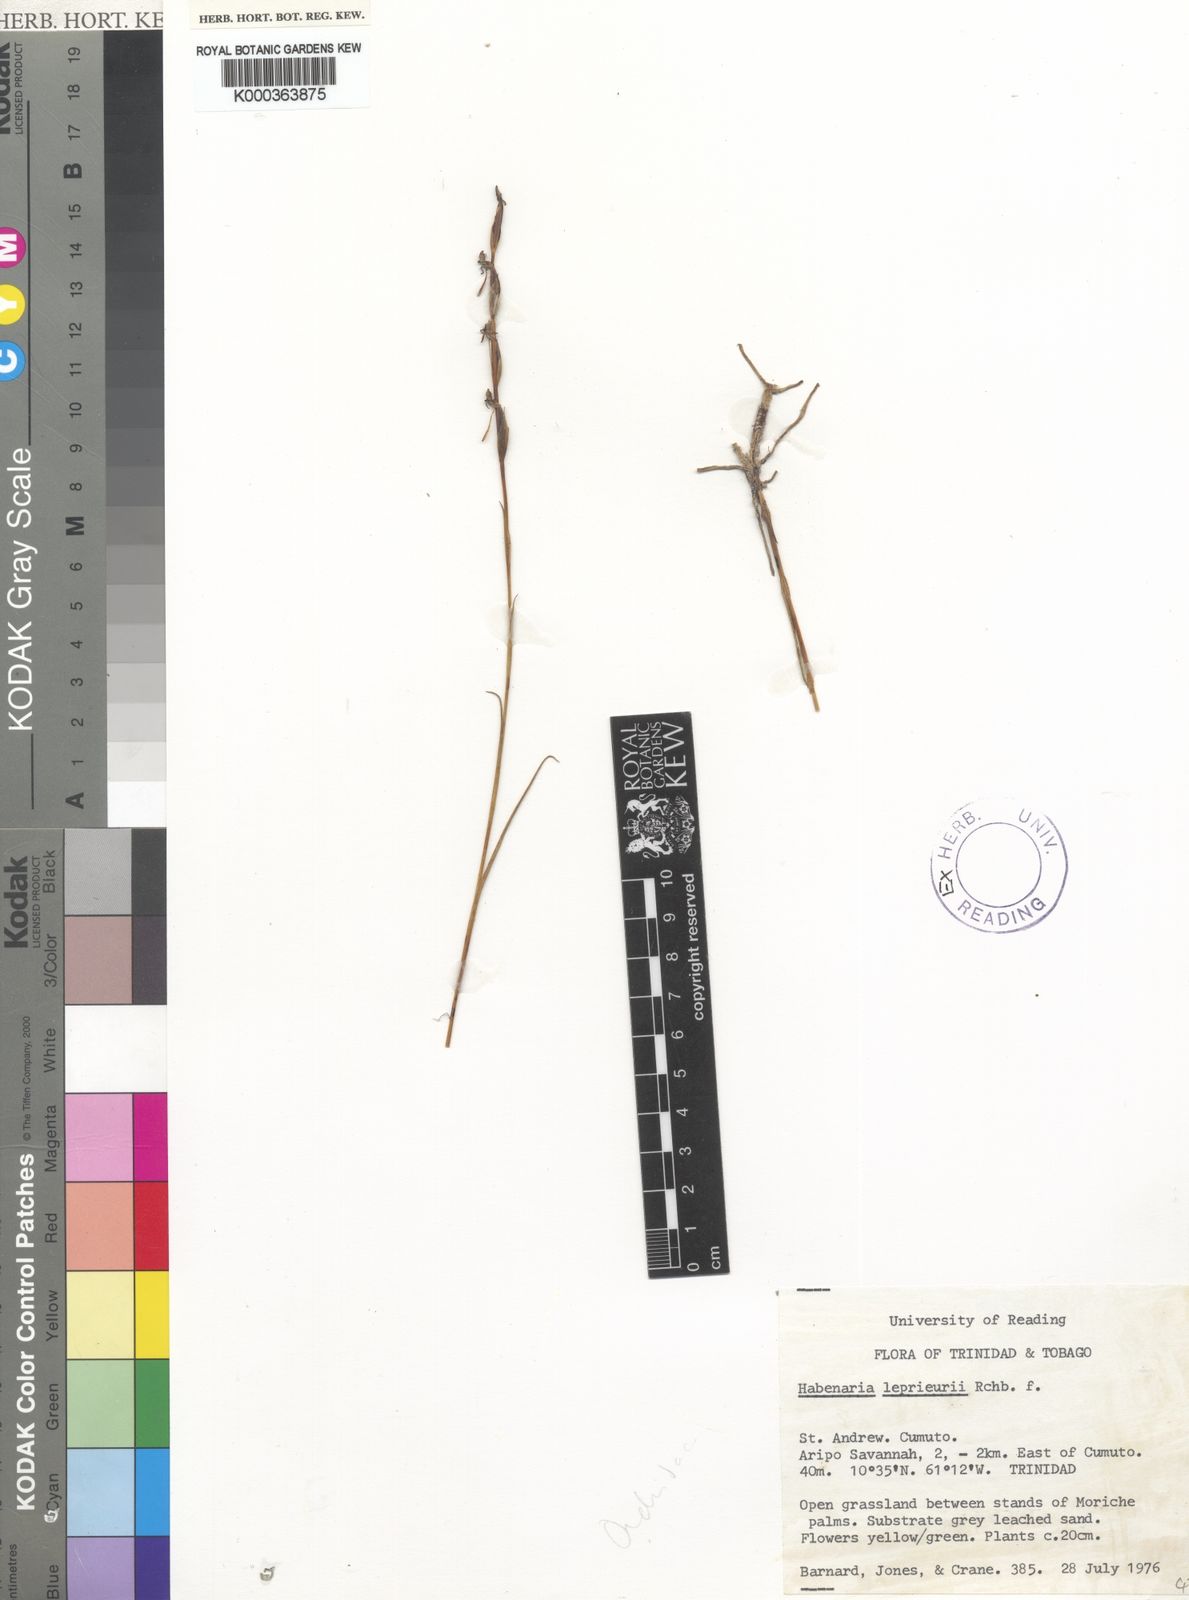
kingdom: Plantae
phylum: Tracheophyta
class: Liliopsida
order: Asparagales
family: Orchidaceae
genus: Habenaria
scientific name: Habenaria leprieurii
